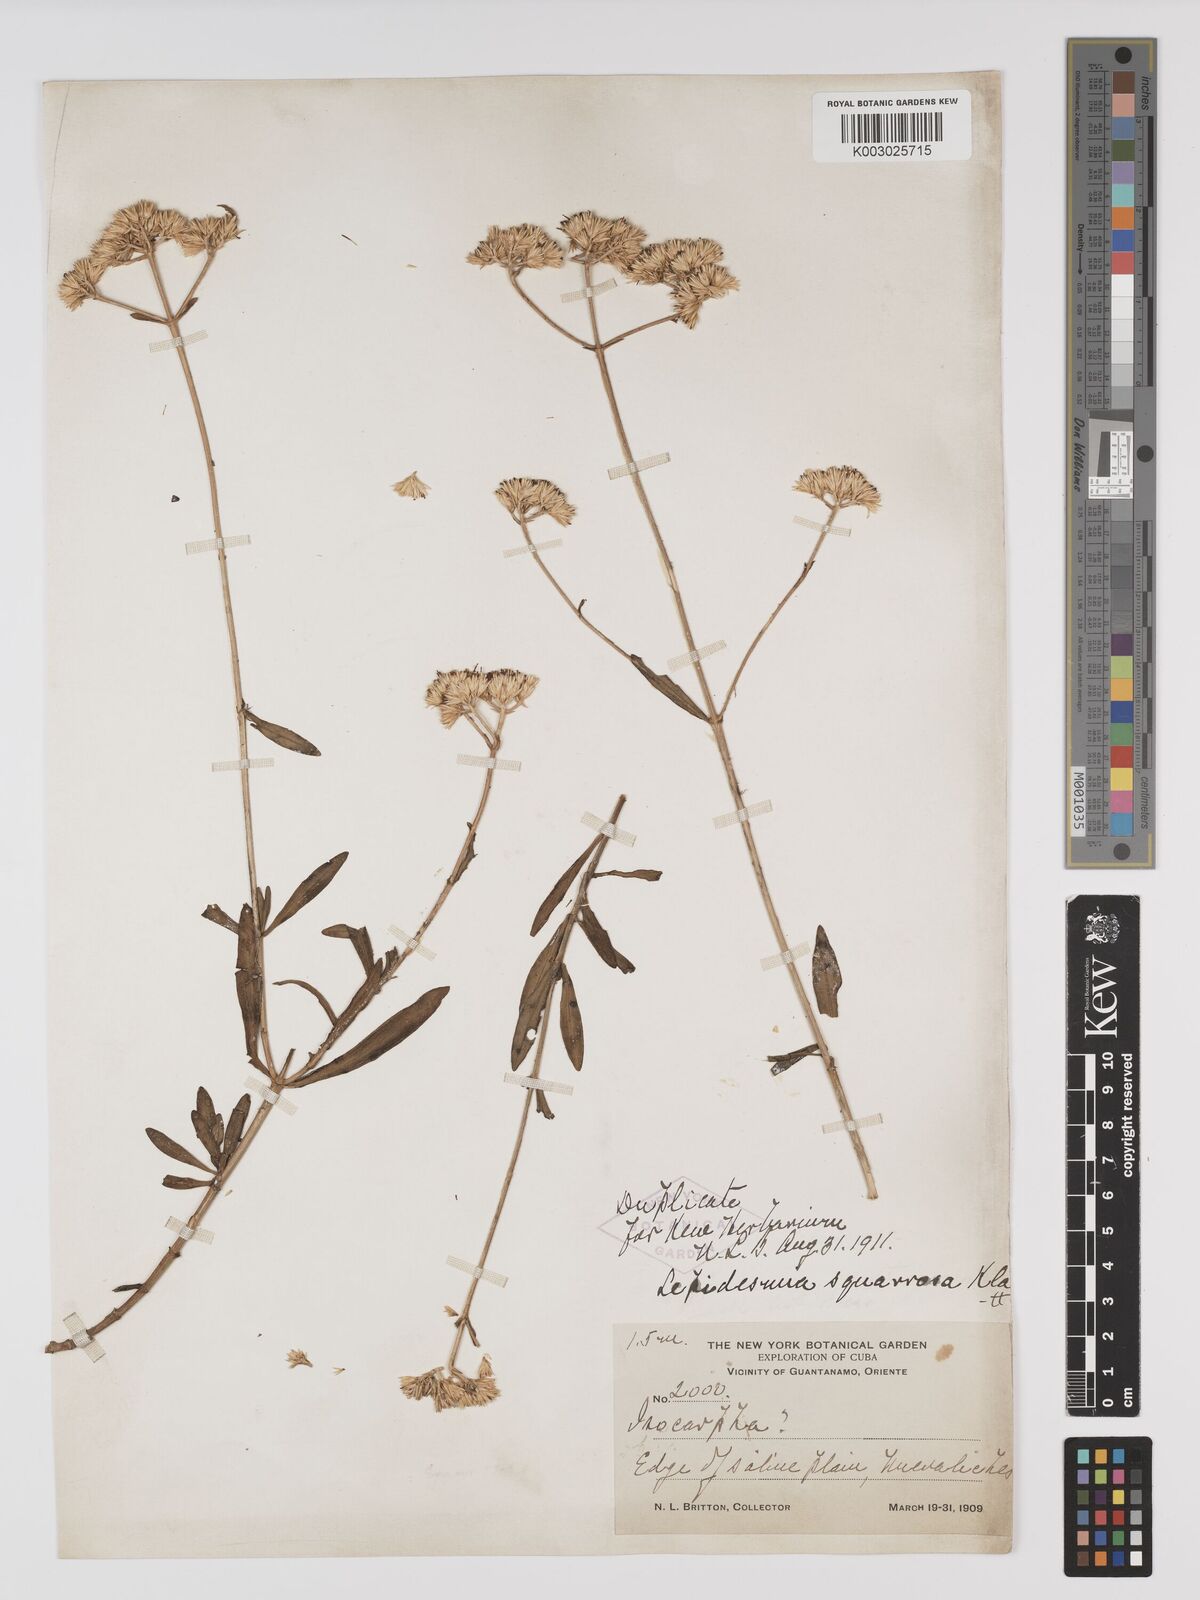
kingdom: Plantae
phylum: Tracheophyta
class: Magnoliopsida
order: Asterales
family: Asteraceae
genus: Lepidesmia
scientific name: Lepidesmia squarrosa
